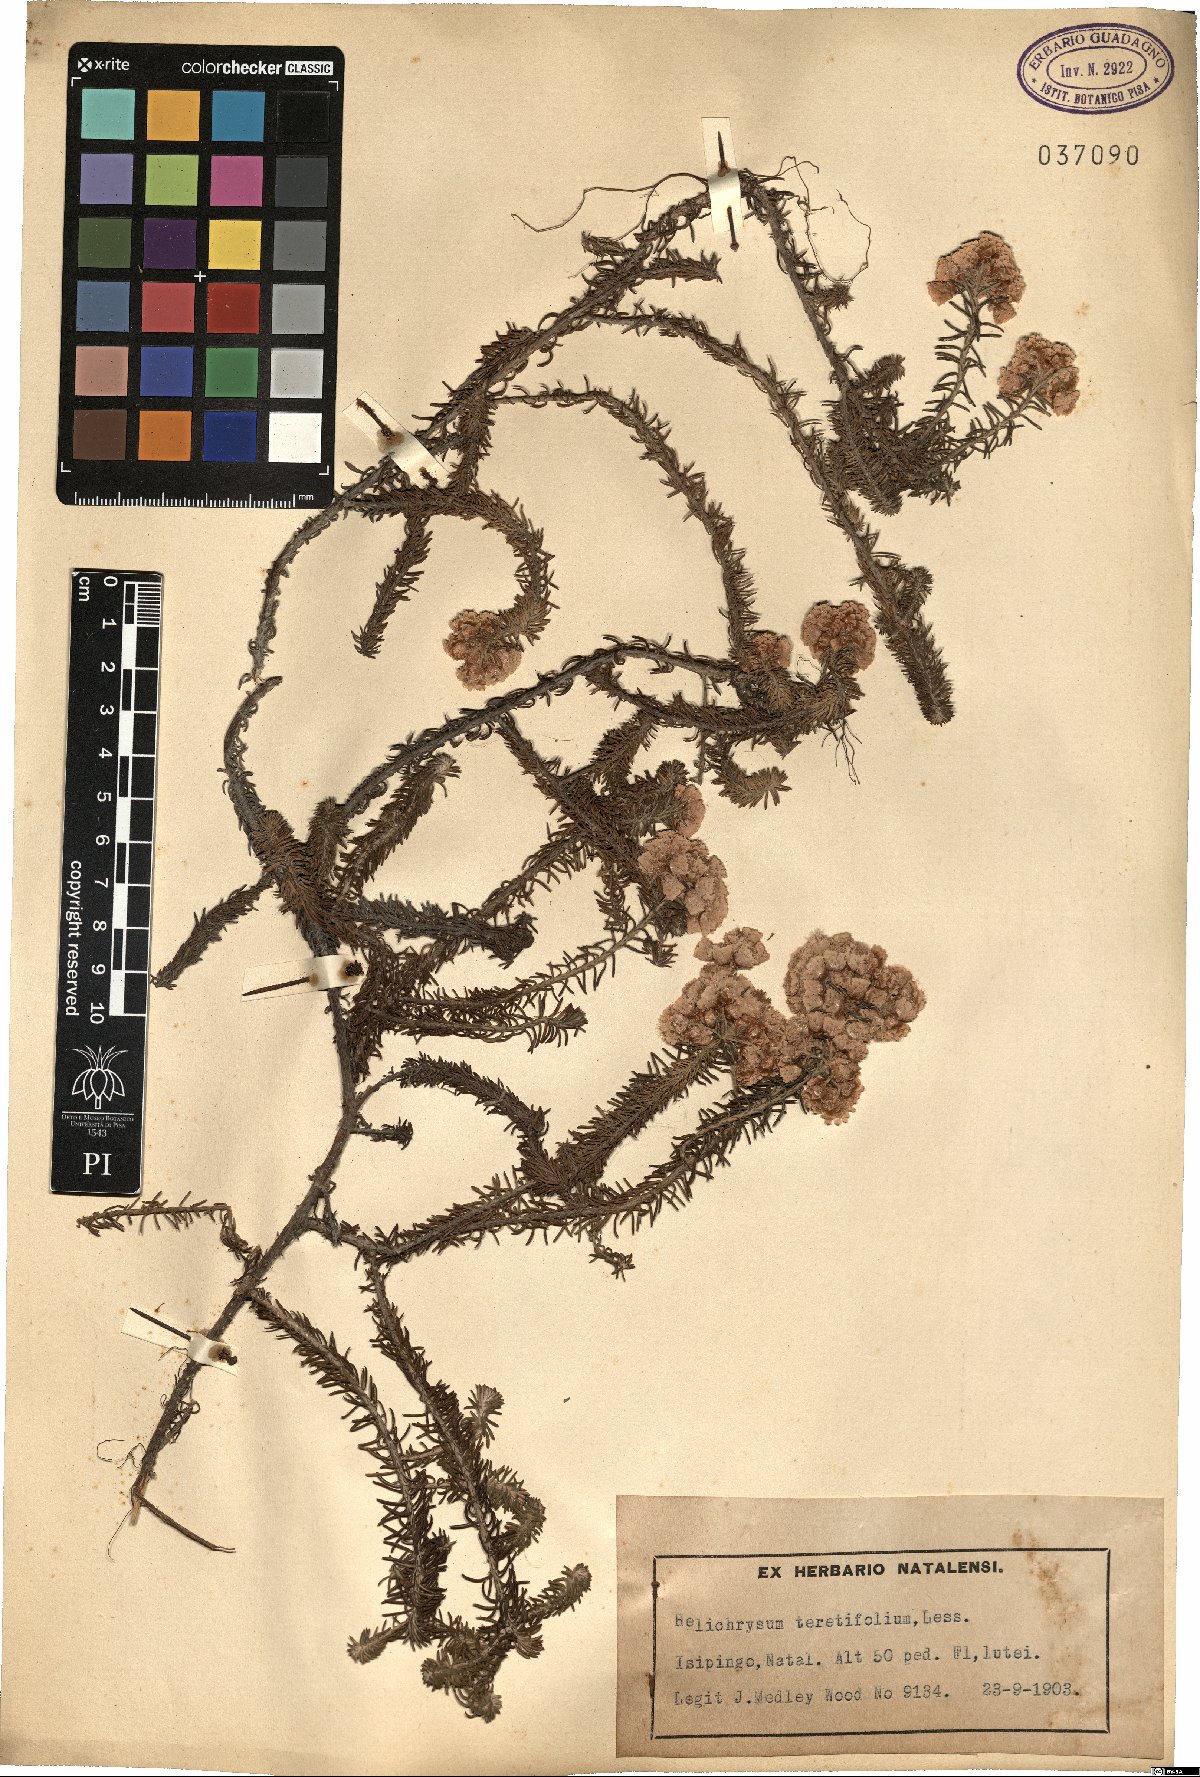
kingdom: Plantae
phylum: Tracheophyta
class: Magnoliopsida
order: Asterales
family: Asteraceae
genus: Helichrysum
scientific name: Helichrysum teretifolium
